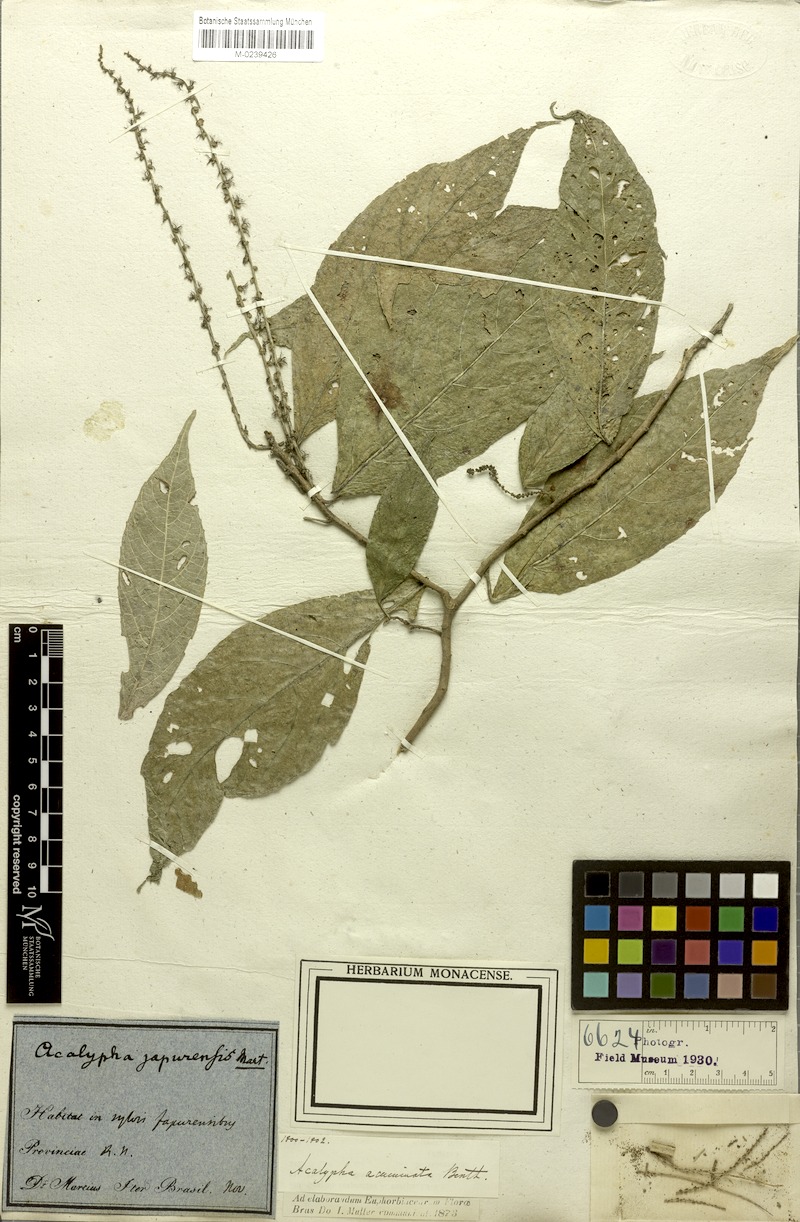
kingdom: Plantae
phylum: Tracheophyta
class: Magnoliopsida
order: Malpighiales
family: Euphorbiaceae
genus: Acalypha
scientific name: Acalypha acuminata
